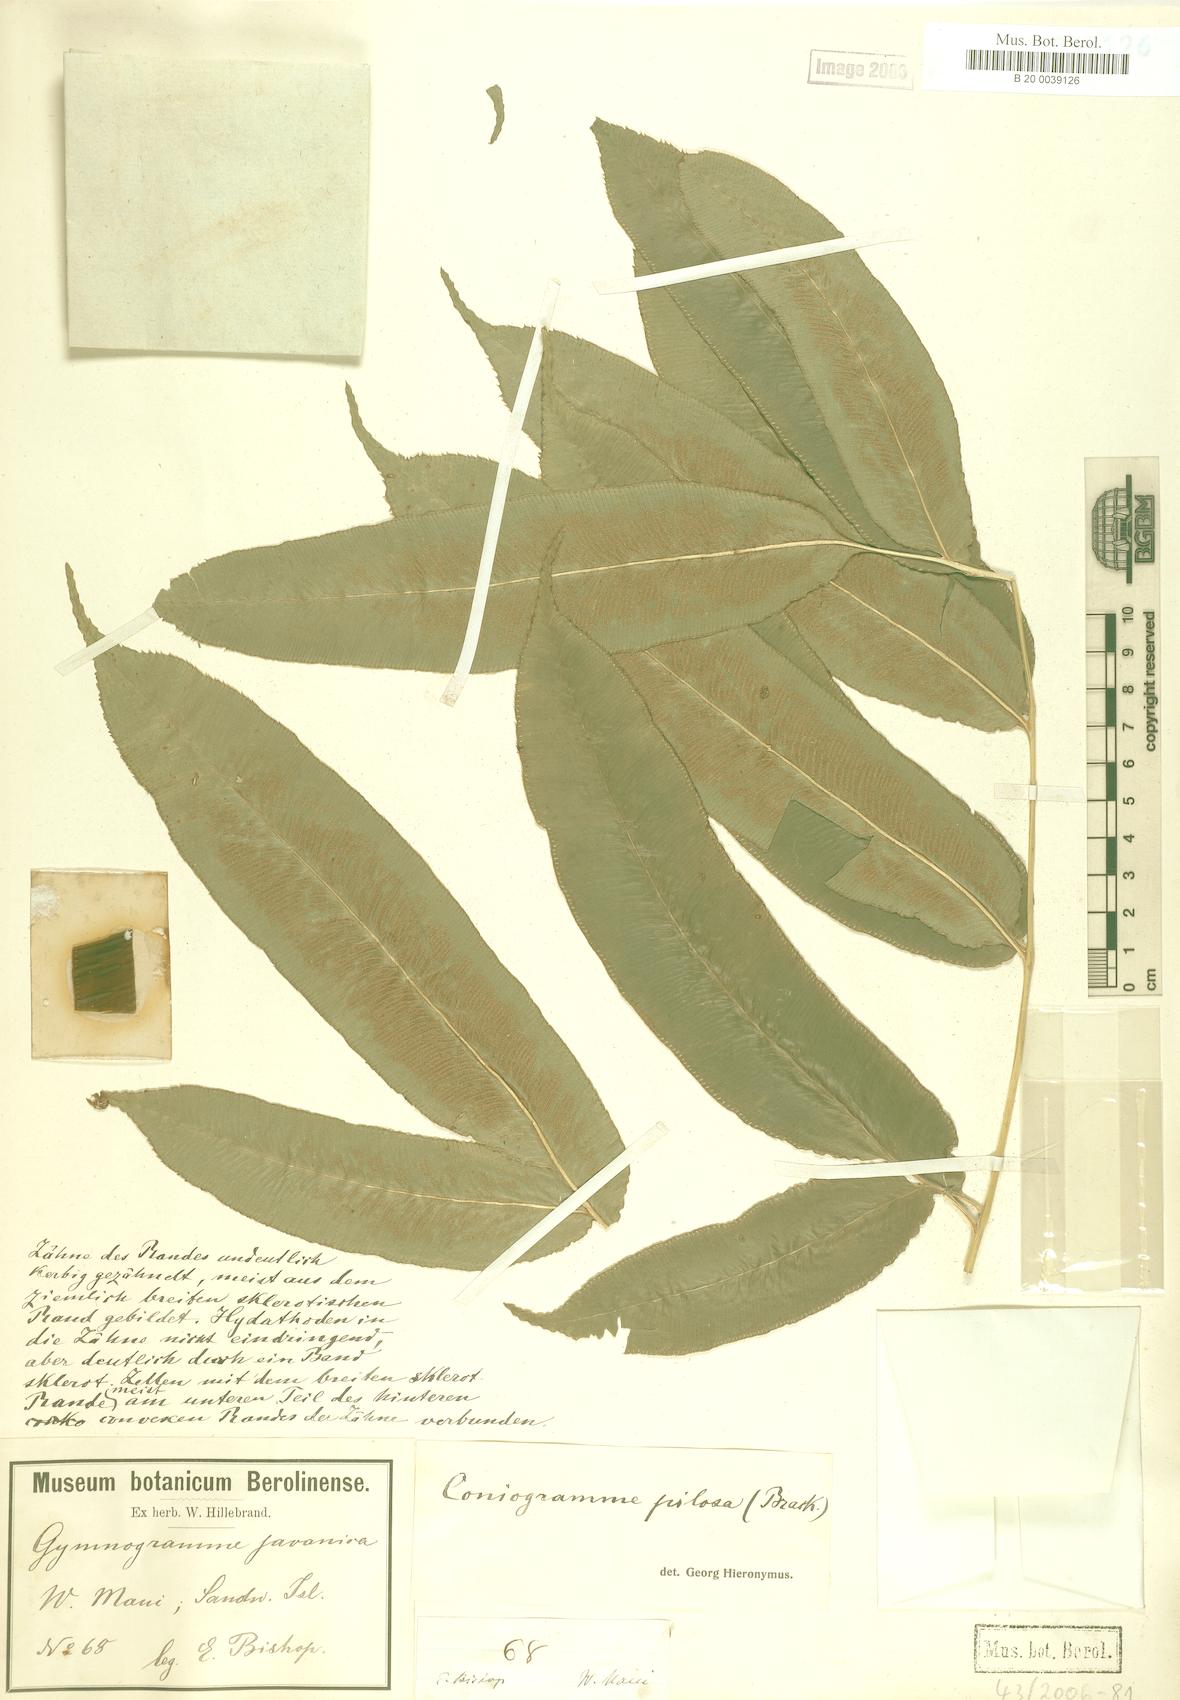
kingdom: Plantae
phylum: Tracheophyta
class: Polypodiopsida
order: Polypodiales
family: Pteridaceae
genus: Coniogramme
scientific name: Coniogramme pilosa
